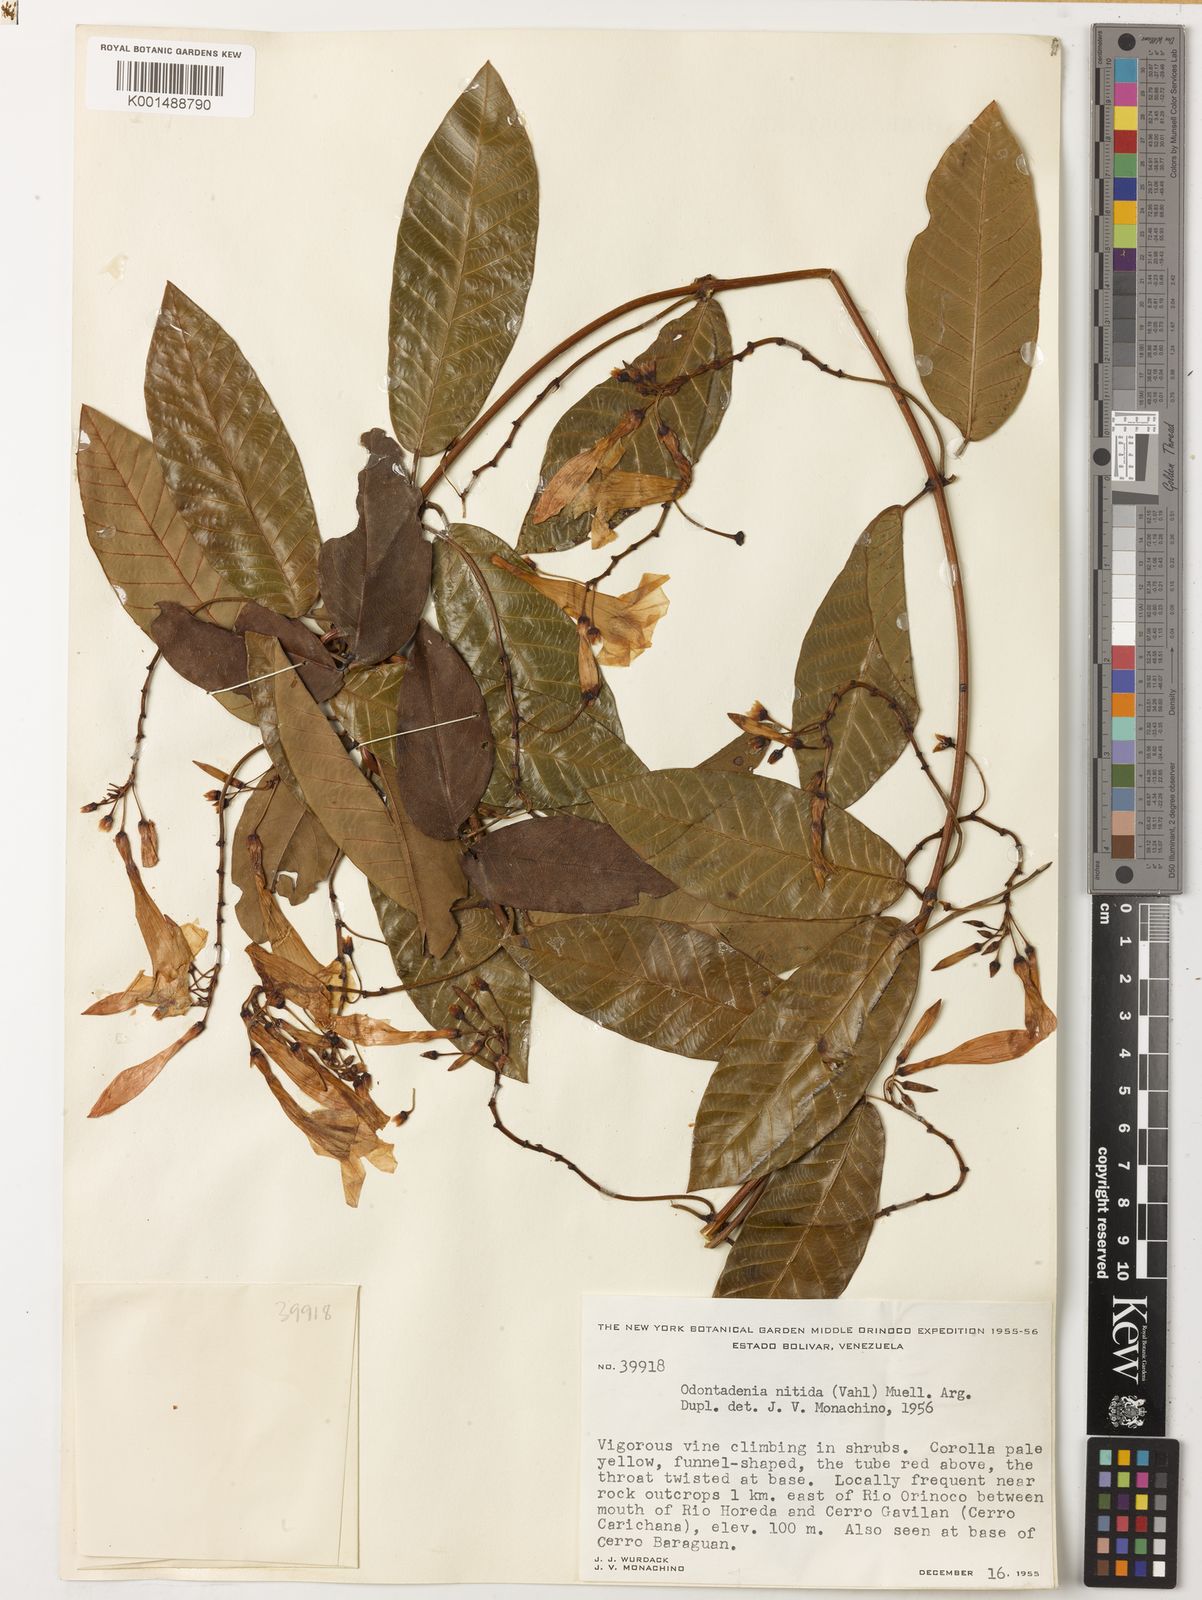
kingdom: Plantae
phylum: Tracheophyta
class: Magnoliopsida
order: Gentianales
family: Apocynaceae
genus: Odontadenia
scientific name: Odontadenia nitida
